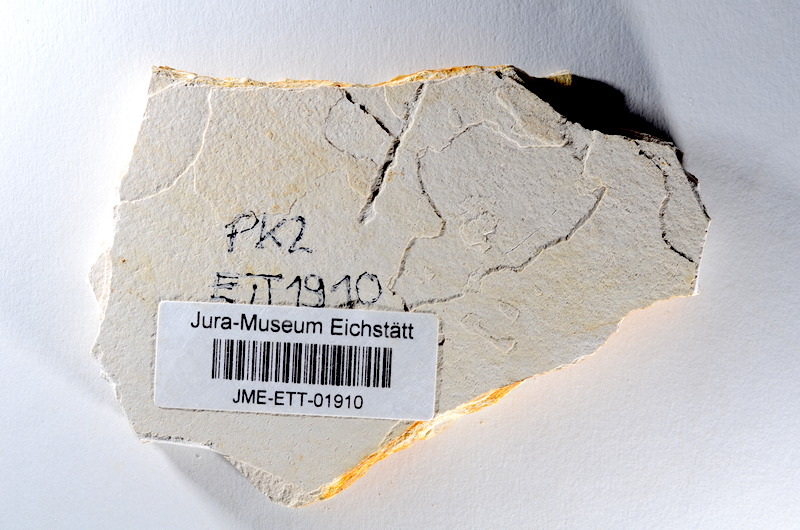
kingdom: Animalia
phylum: Chordata
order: Salmoniformes
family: Orthogonikleithridae
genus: Orthogonikleithrus
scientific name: Orthogonikleithrus hoelli
